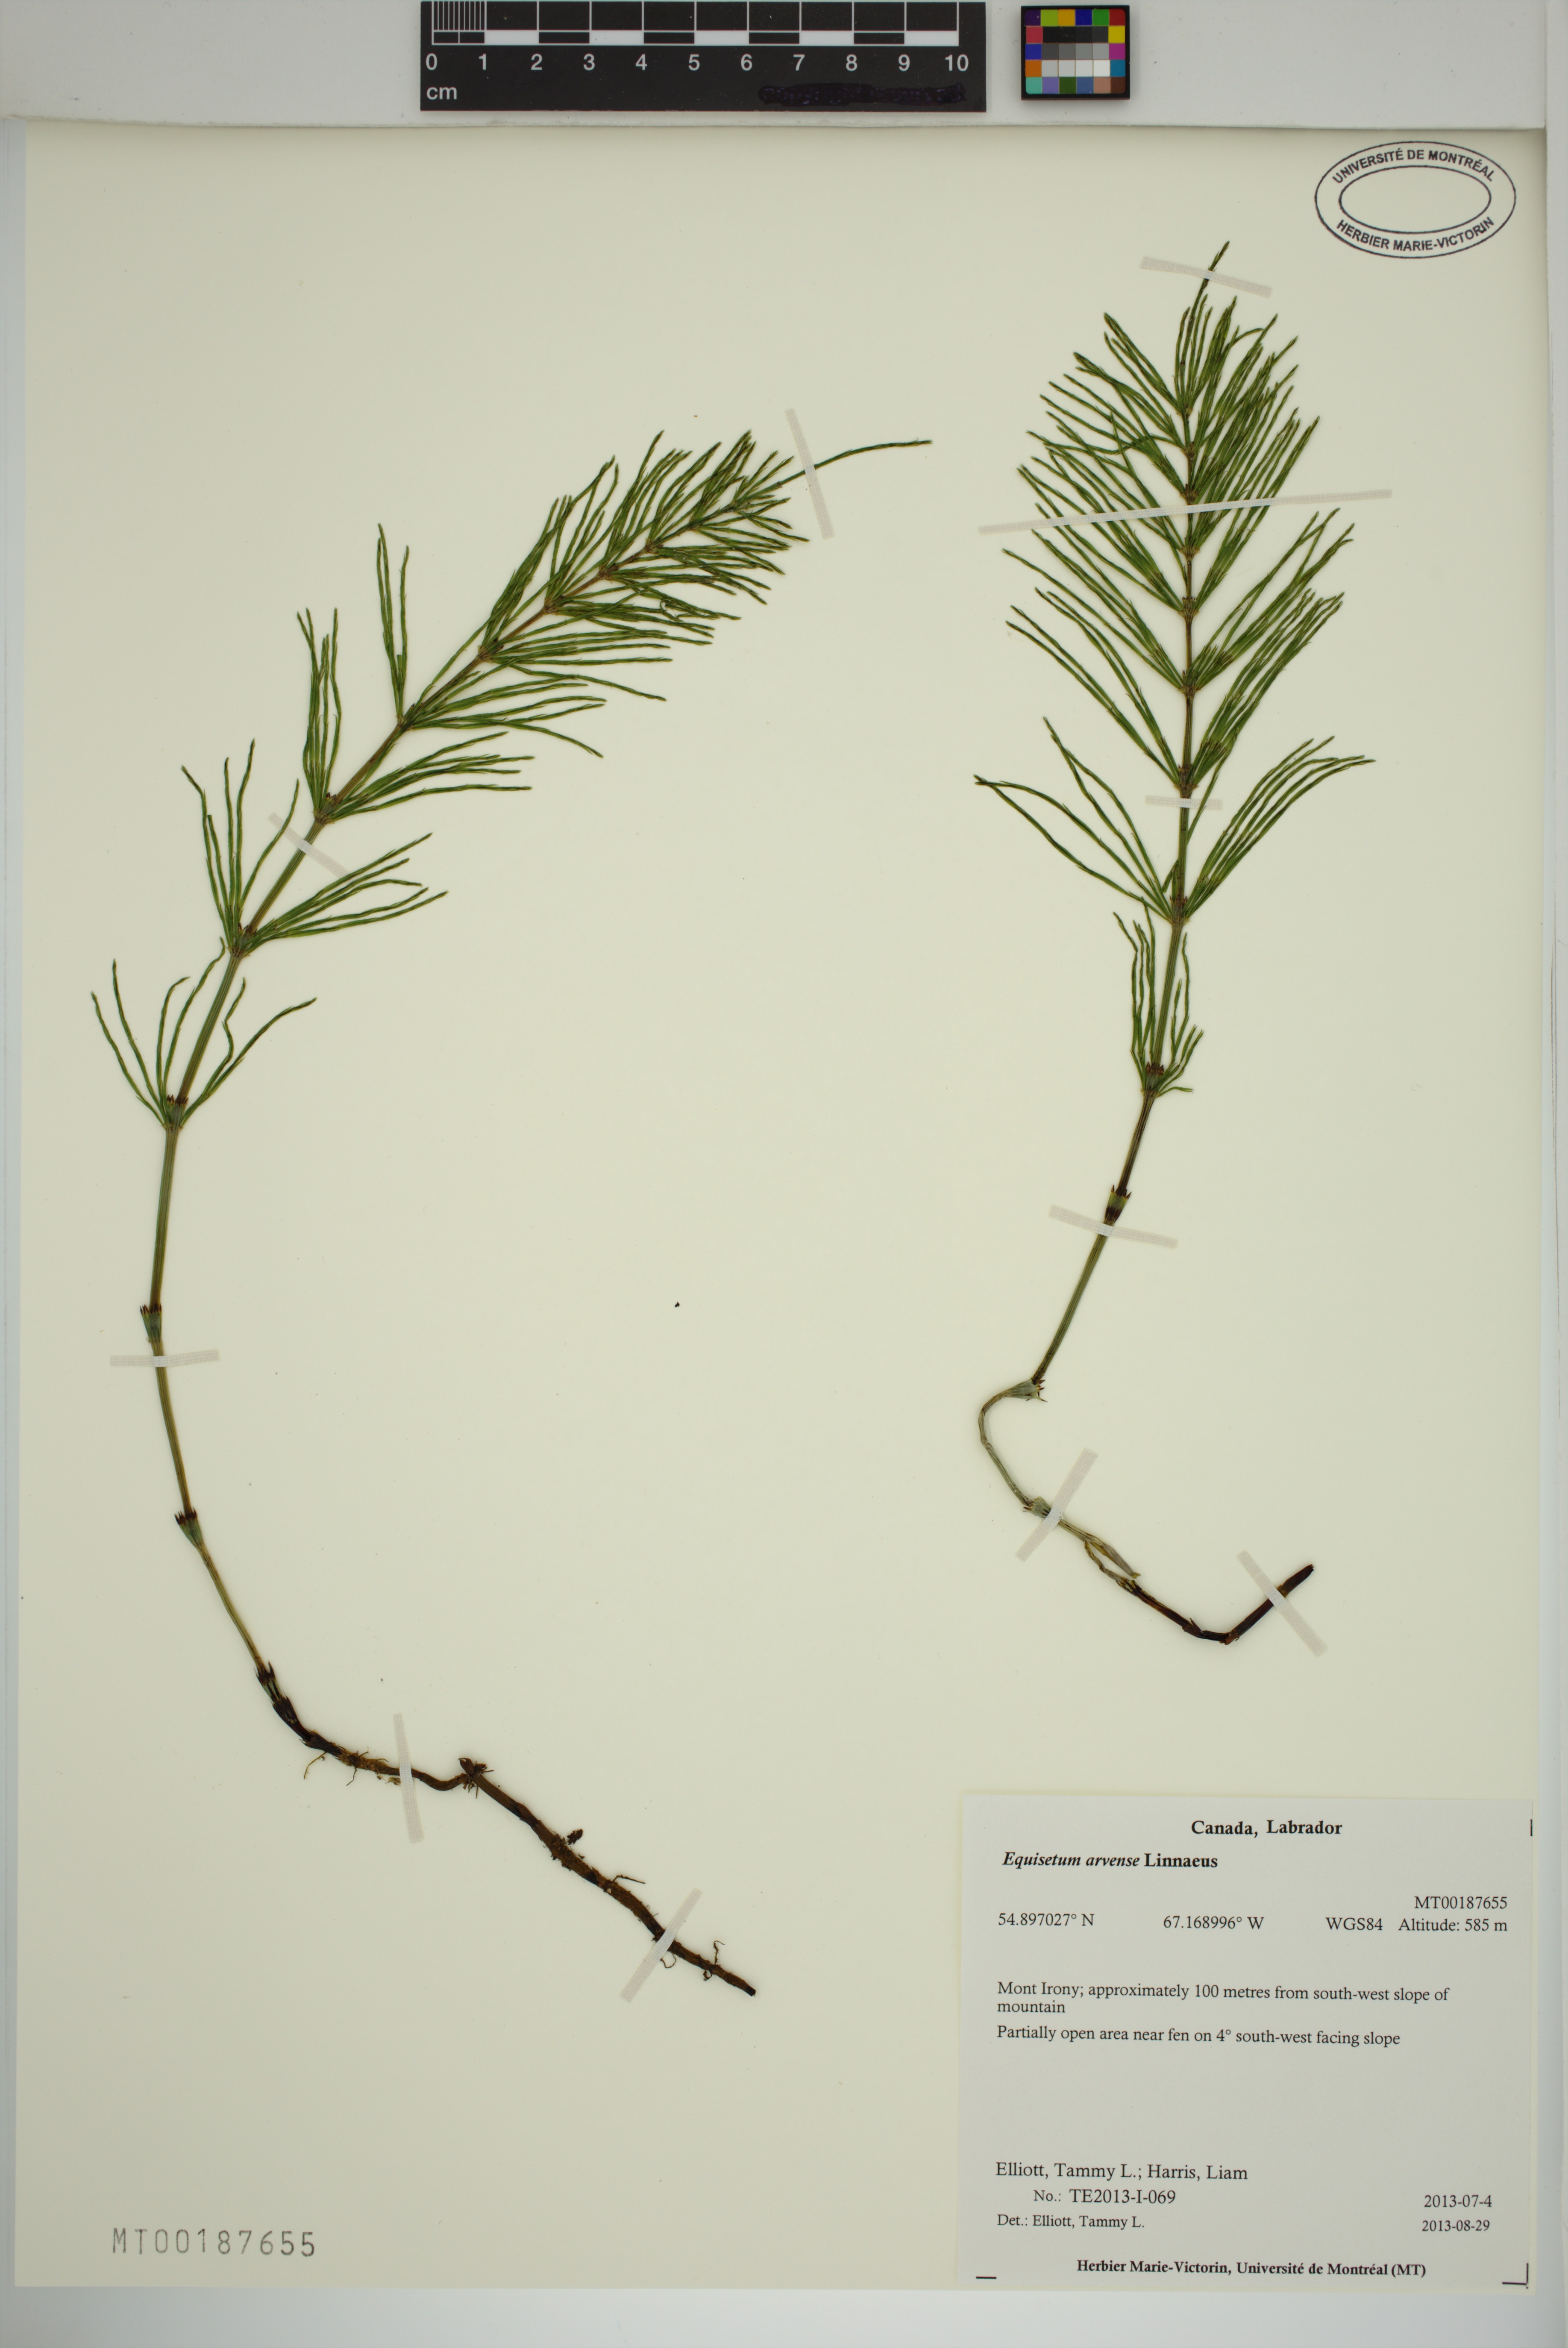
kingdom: Plantae
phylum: Tracheophyta
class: Polypodiopsida
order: Equisetales
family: Equisetaceae
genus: Equisetum
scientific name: Equisetum arvense
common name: Field horsetail
